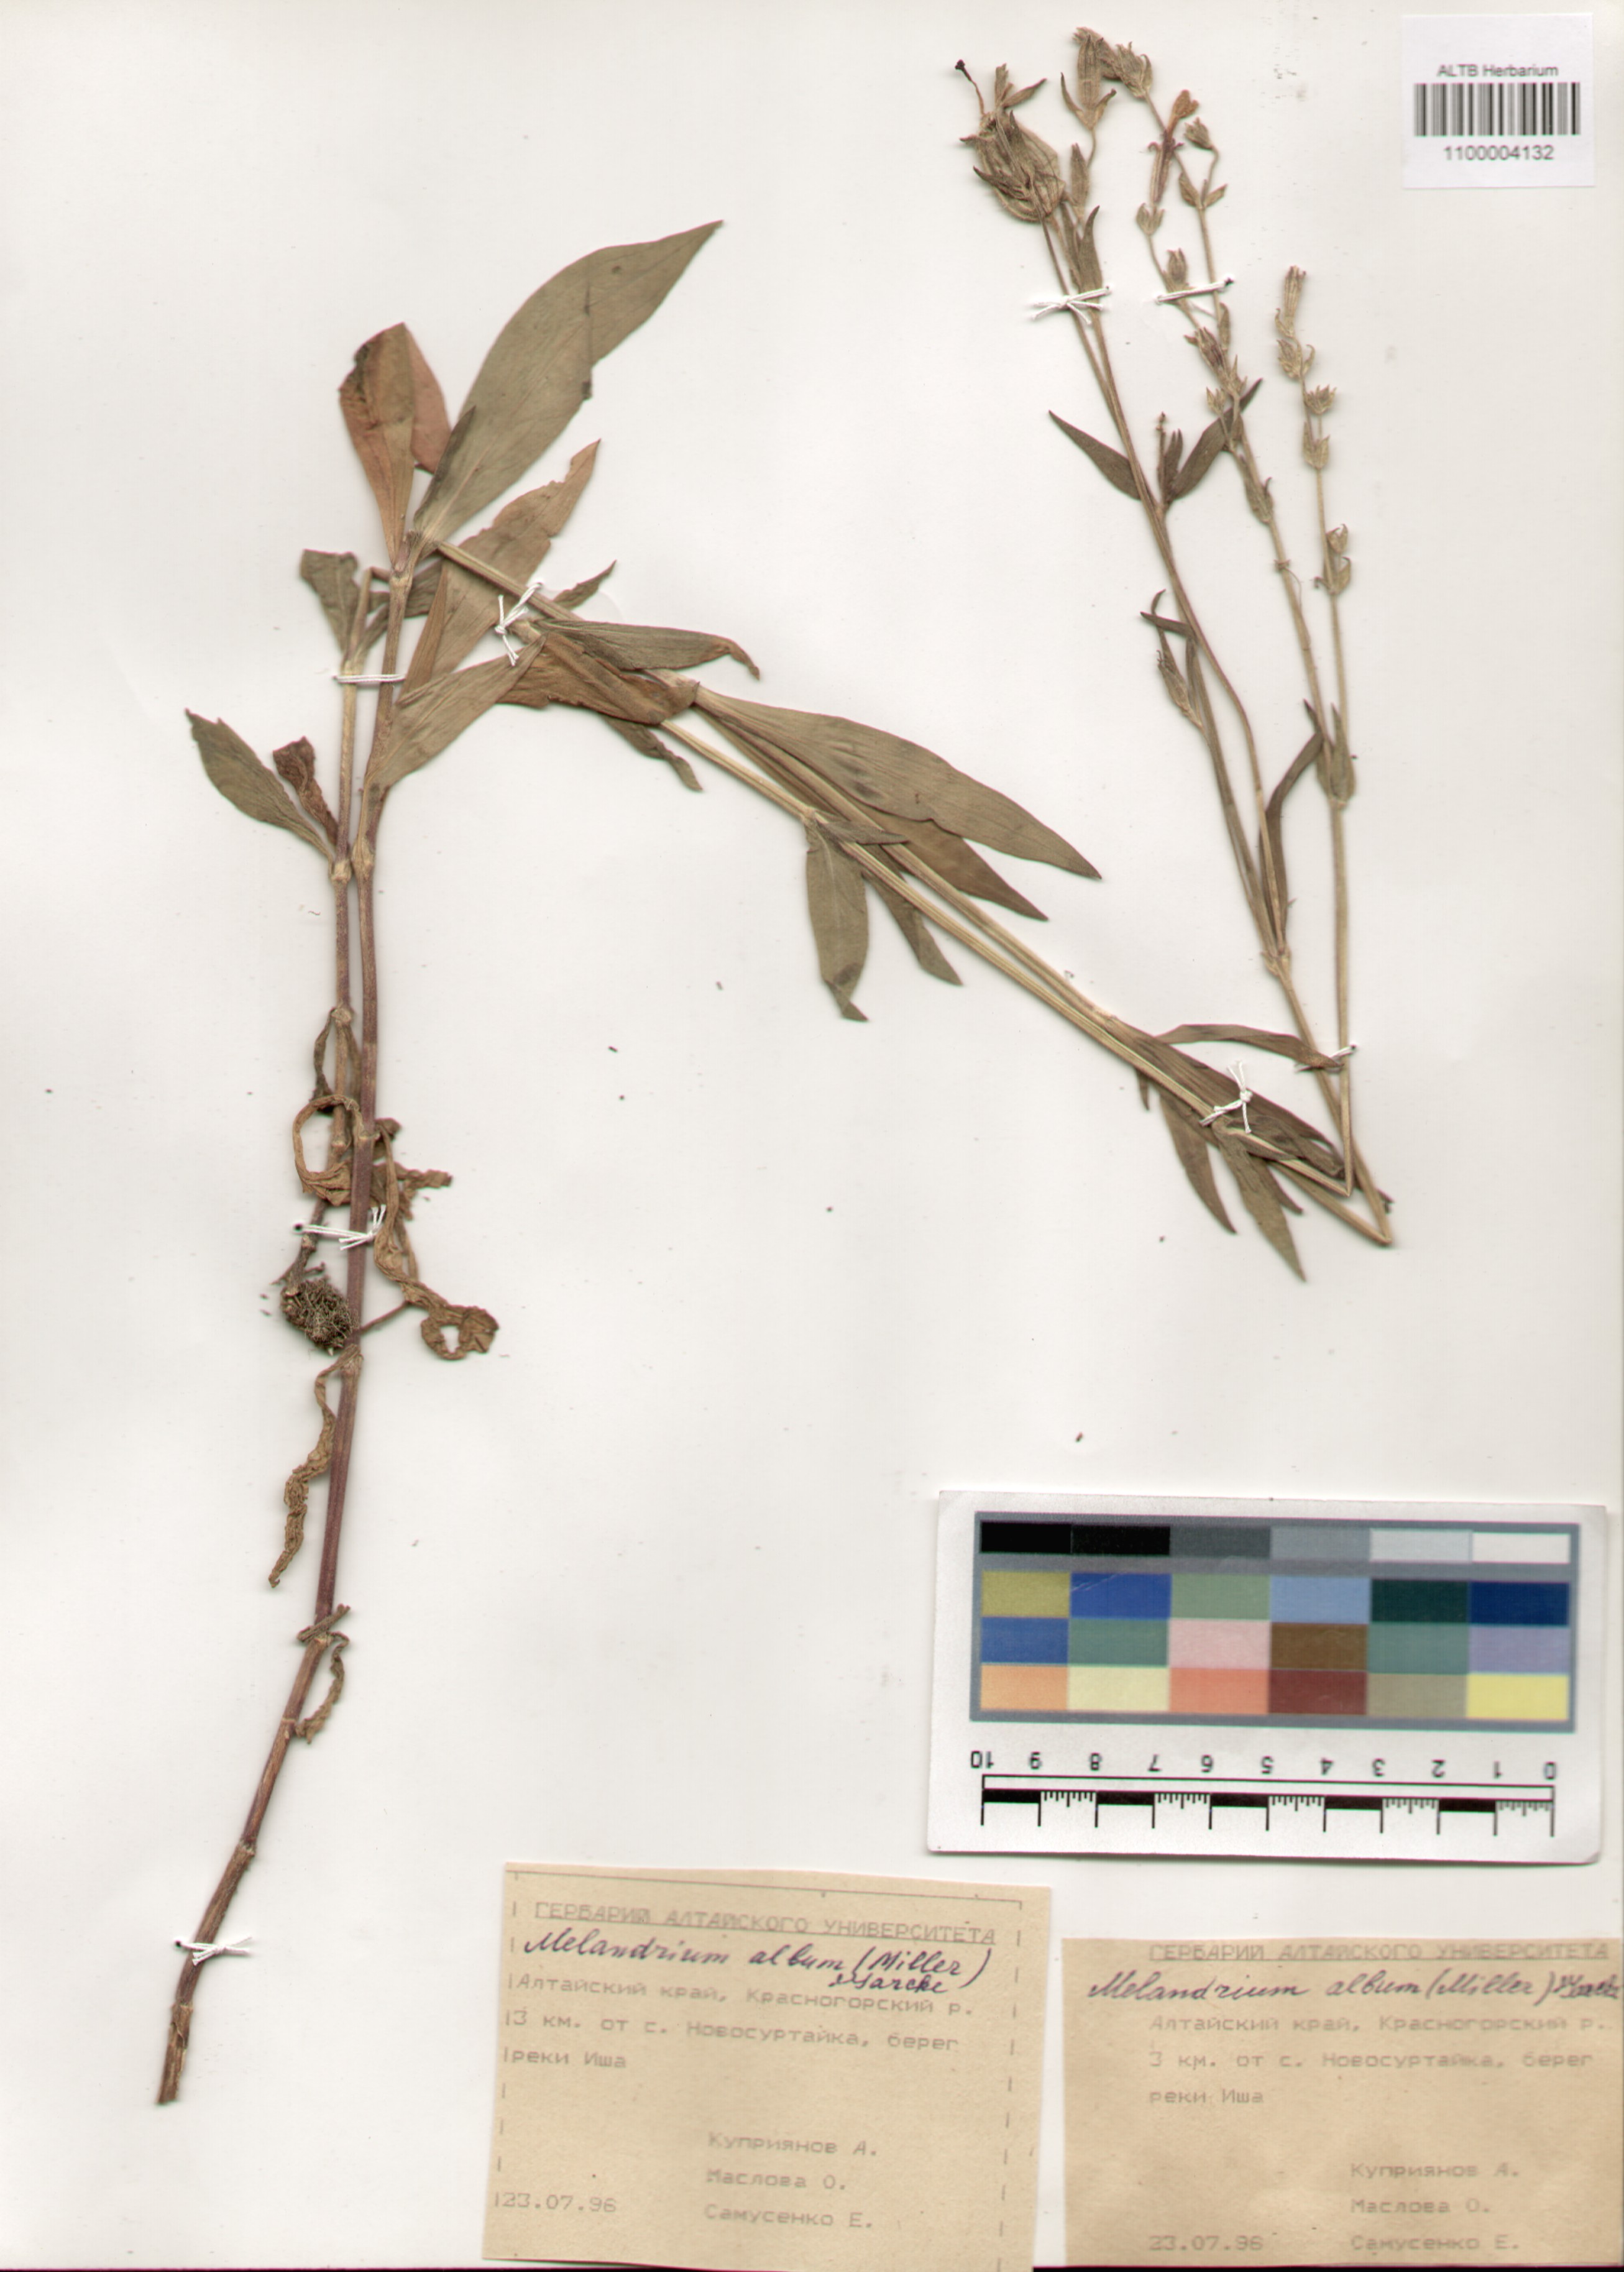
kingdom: Plantae
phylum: Tracheophyta
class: Magnoliopsida
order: Caryophyllales
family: Caryophyllaceae
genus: Silene
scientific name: Silene latifolia
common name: White campion
